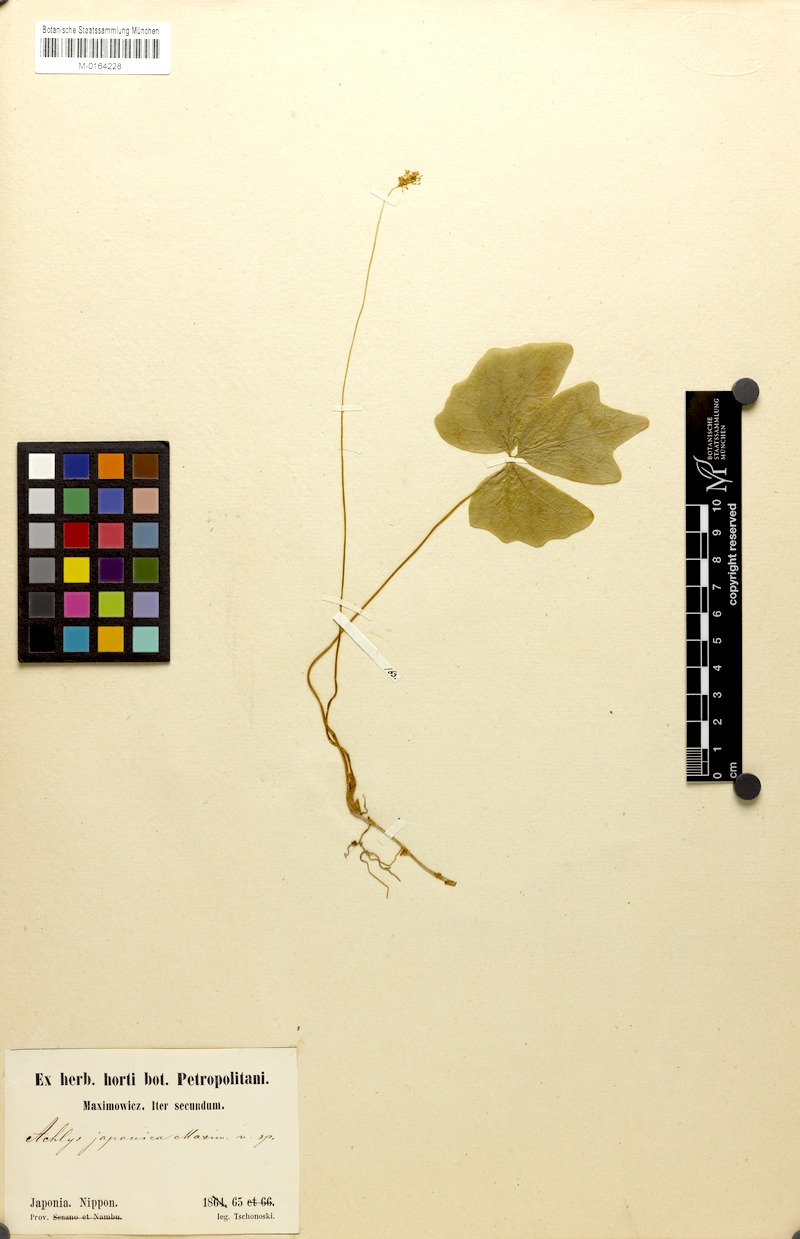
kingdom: Plantae
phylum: Tracheophyta
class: Magnoliopsida
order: Ranunculales
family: Berberidaceae
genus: Achlys
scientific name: Achlys japonica
